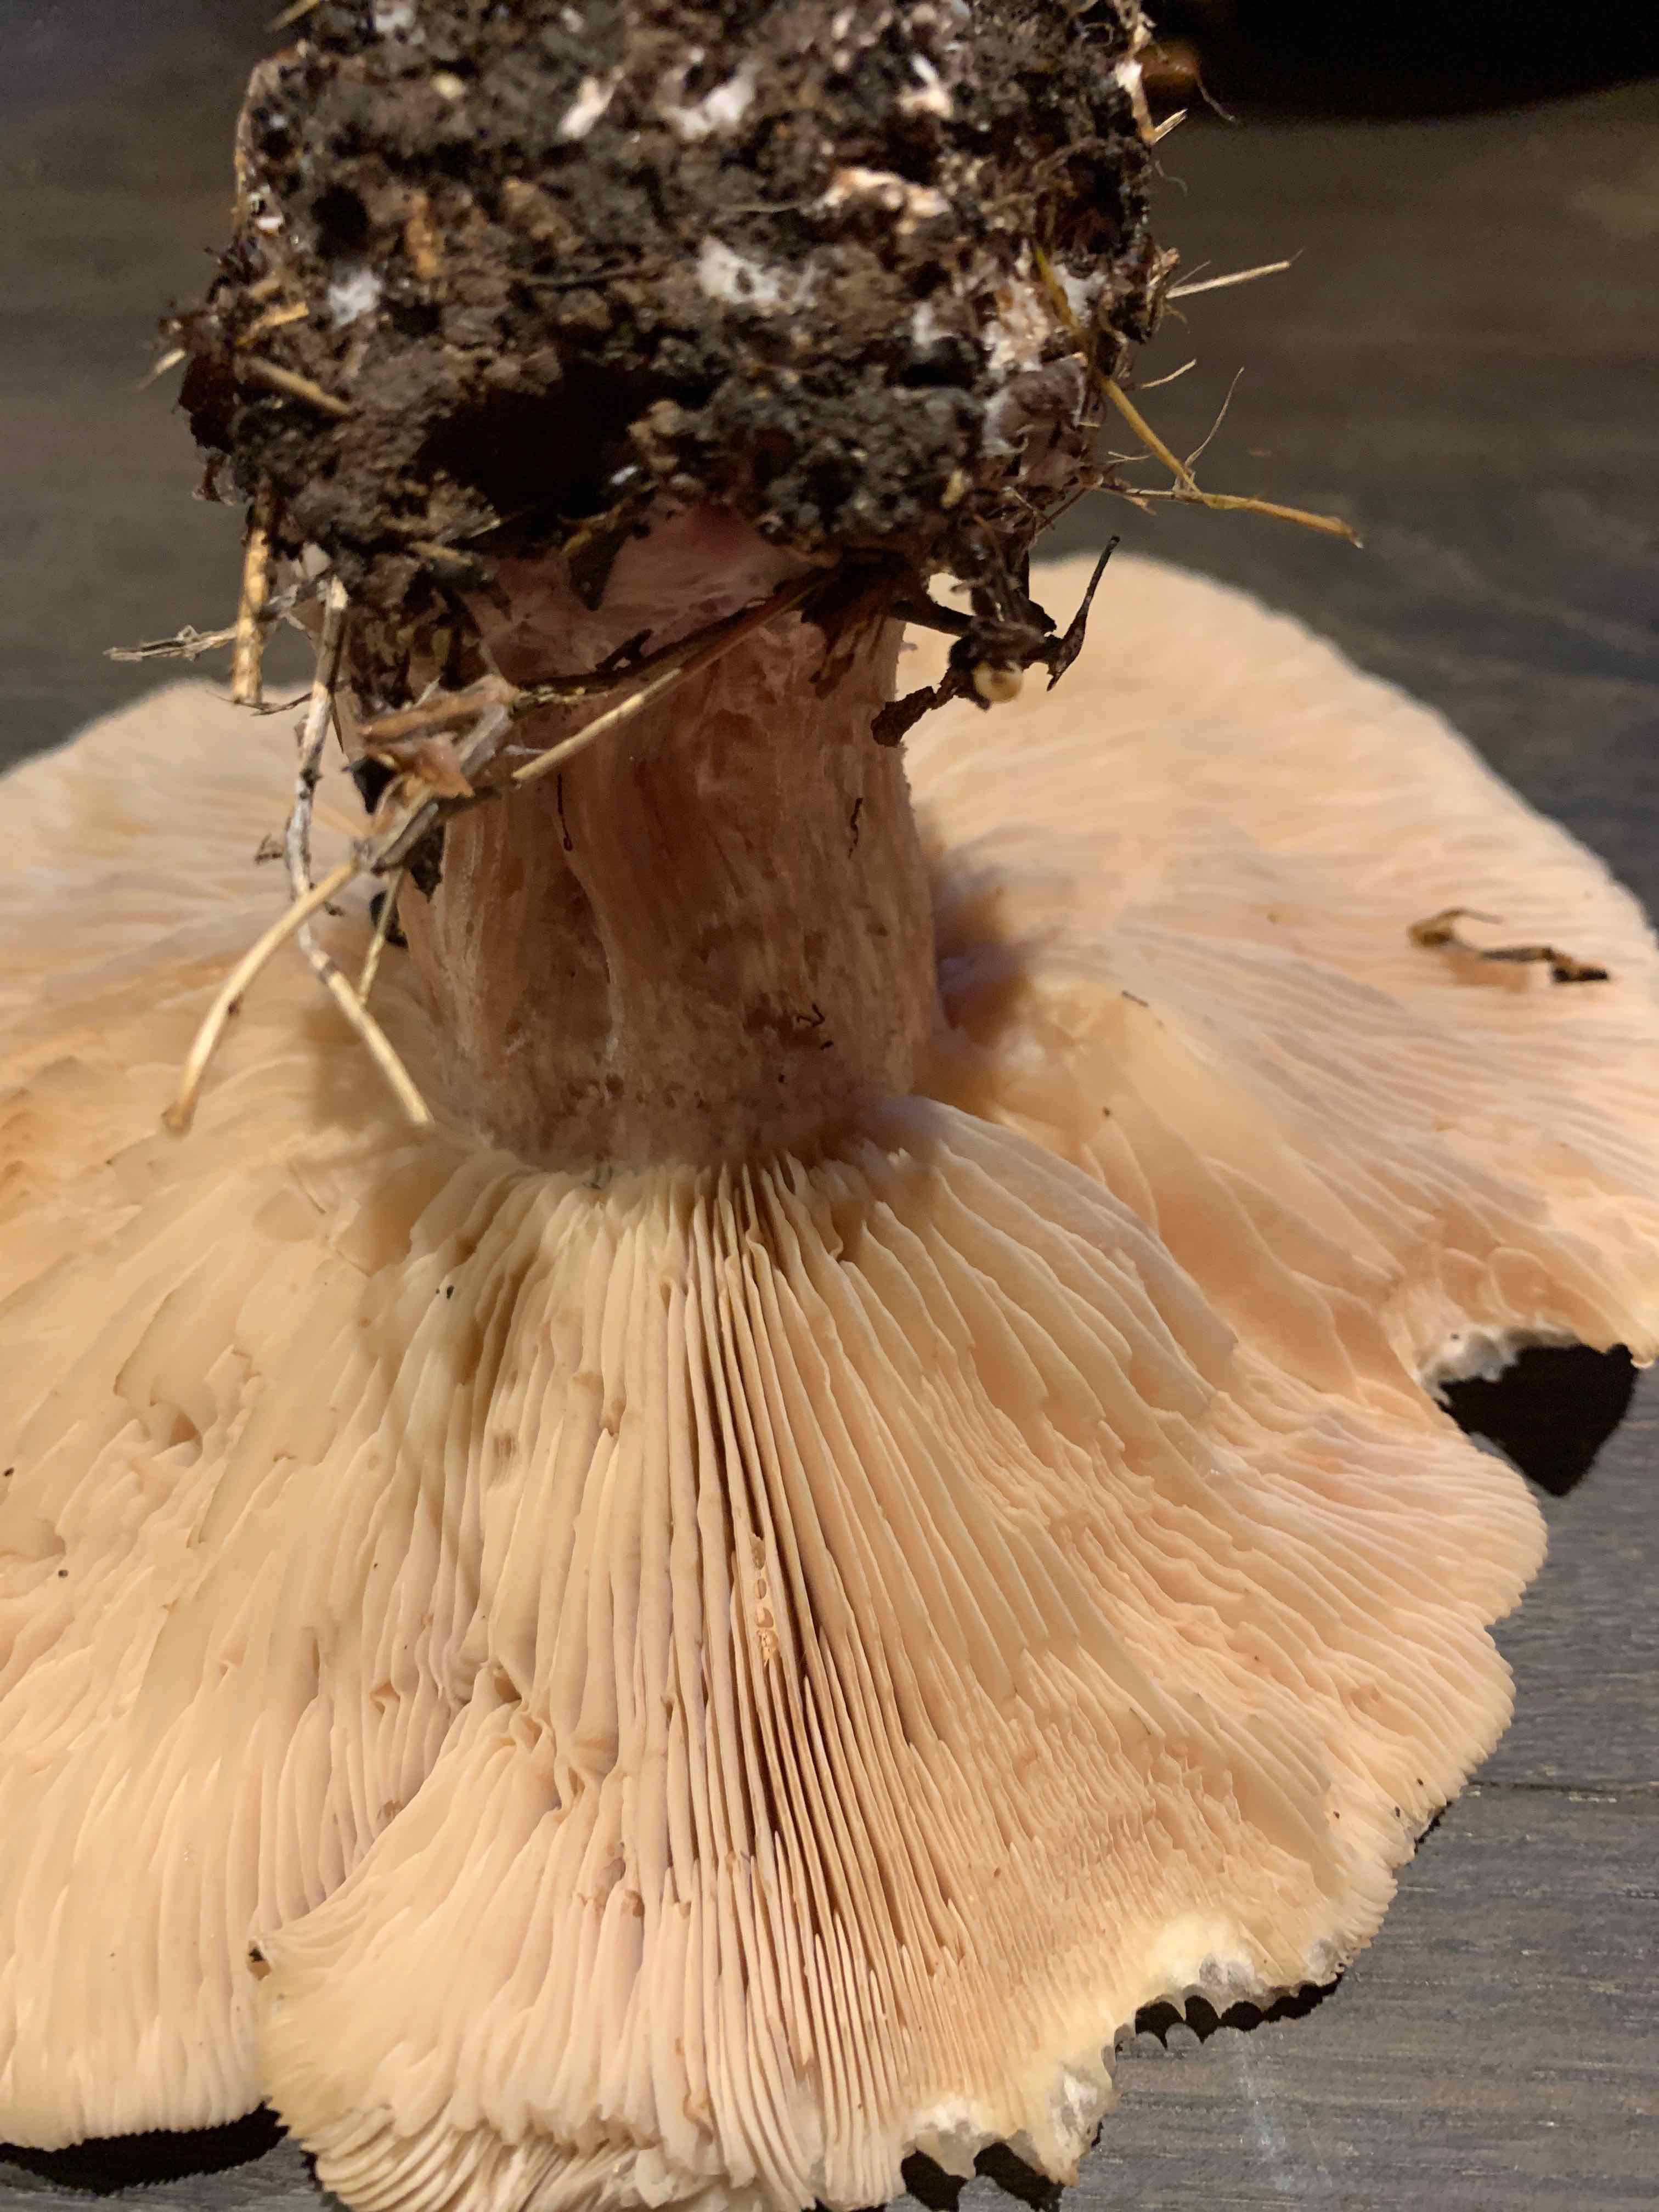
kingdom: Fungi
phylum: Basidiomycota
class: Agaricomycetes
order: Agaricales
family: Tricholomataceae
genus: Lepista
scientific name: Lepista personata
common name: bleg hekseringshat
